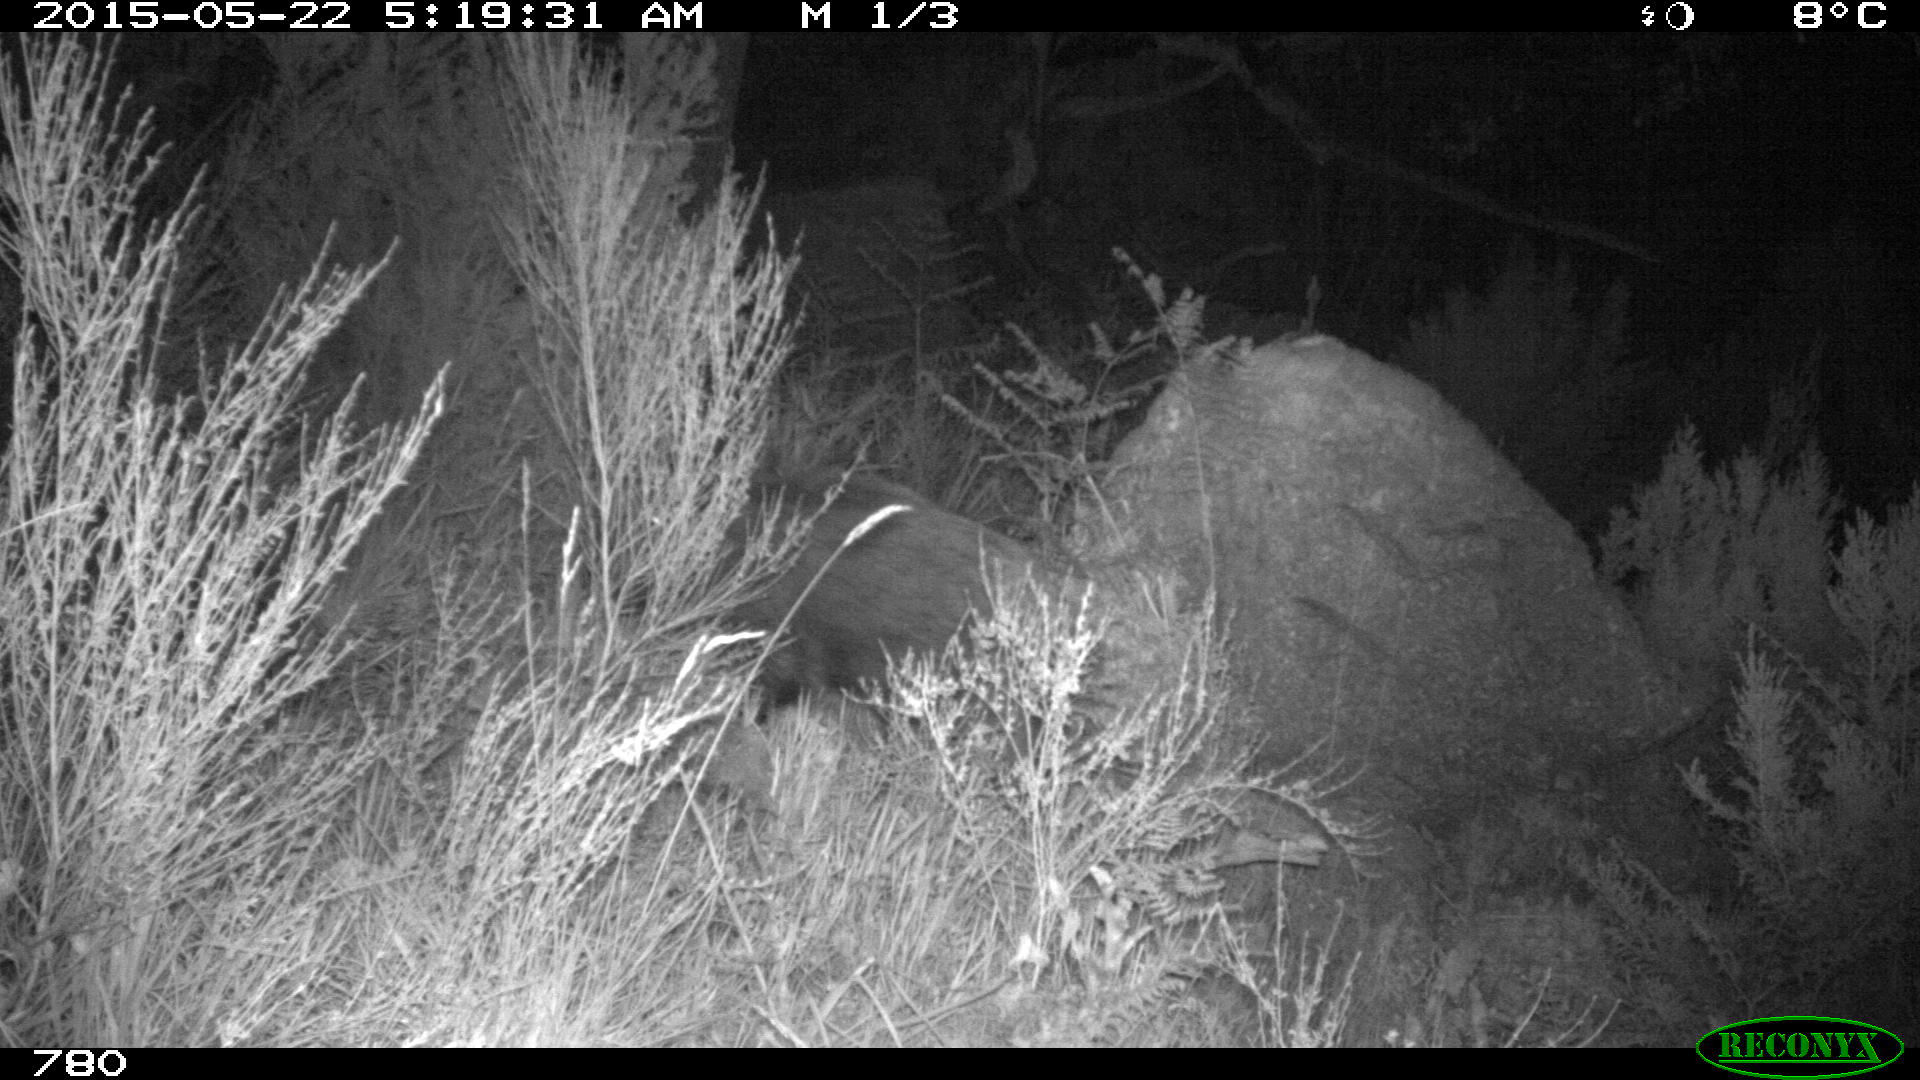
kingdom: Animalia
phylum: Chordata
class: Mammalia
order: Artiodactyla
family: Suidae
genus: Sus
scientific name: Sus scrofa
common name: Wild boar
